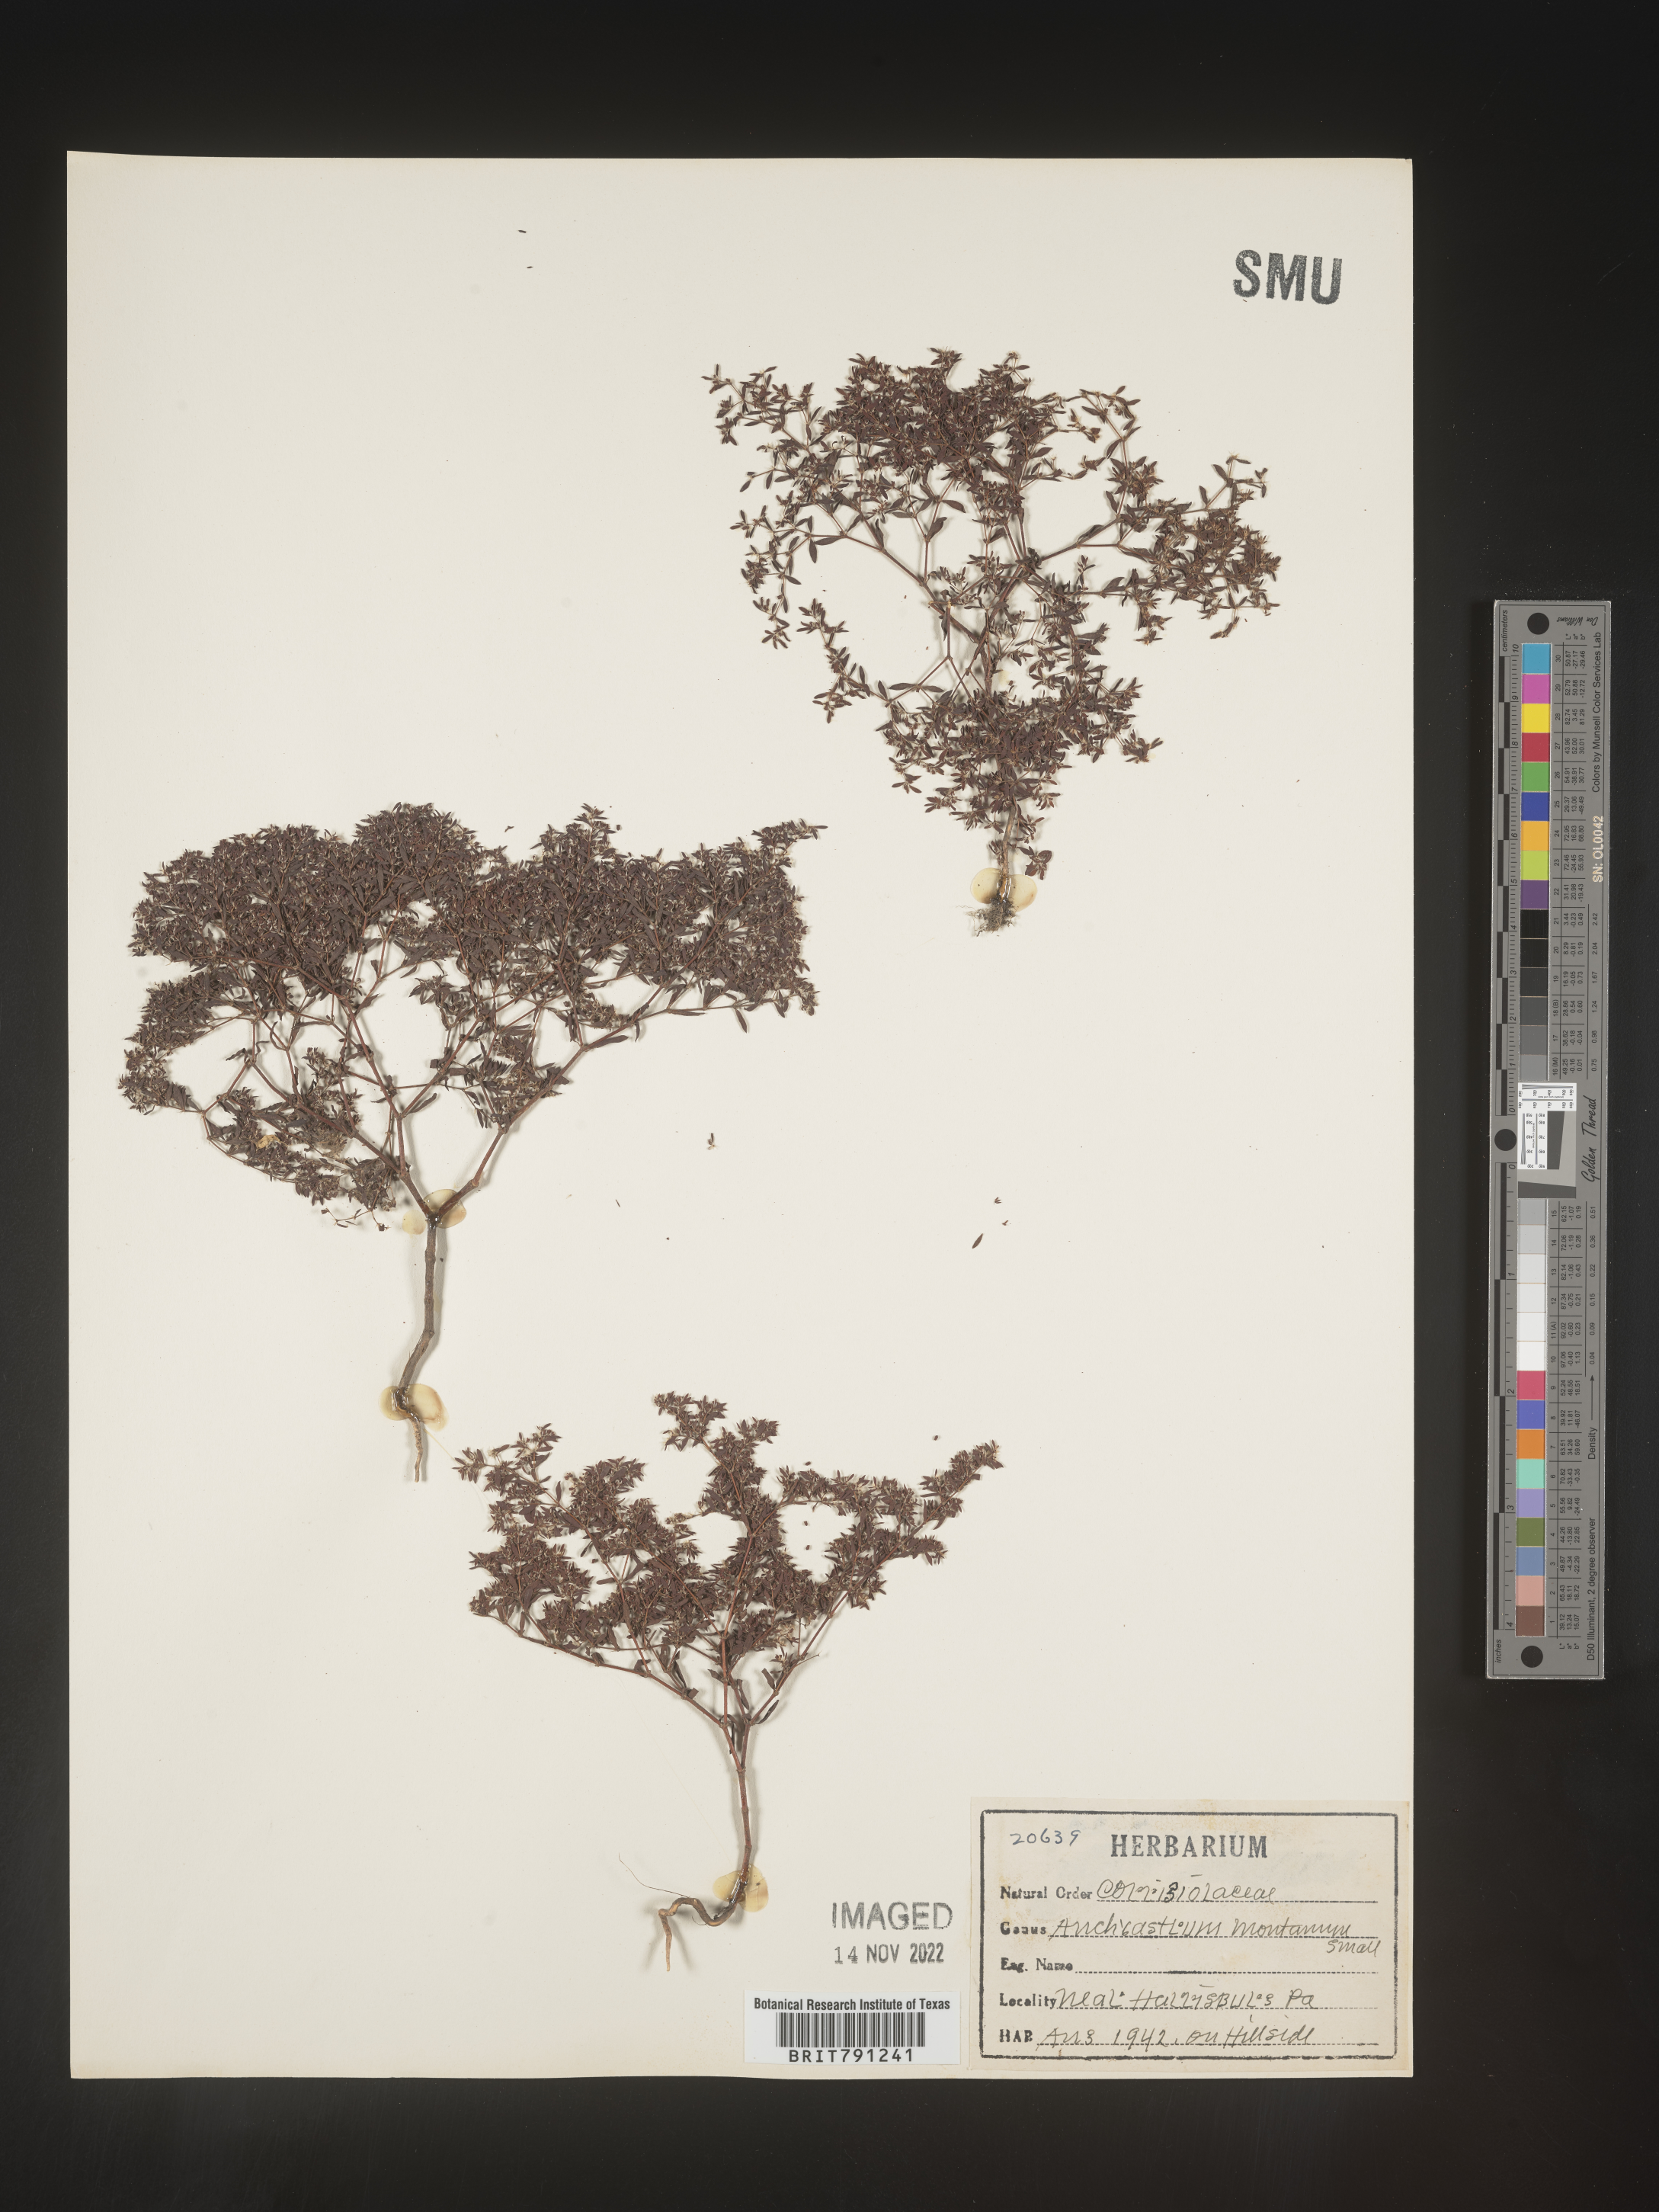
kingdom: Plantae
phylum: Tracheophyta
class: Magnoliopsida
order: Caryophyllales
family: Caryophyllaceae
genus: Paronychia
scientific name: Paronychia fastigiata
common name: Branching forked whitlow-wort
